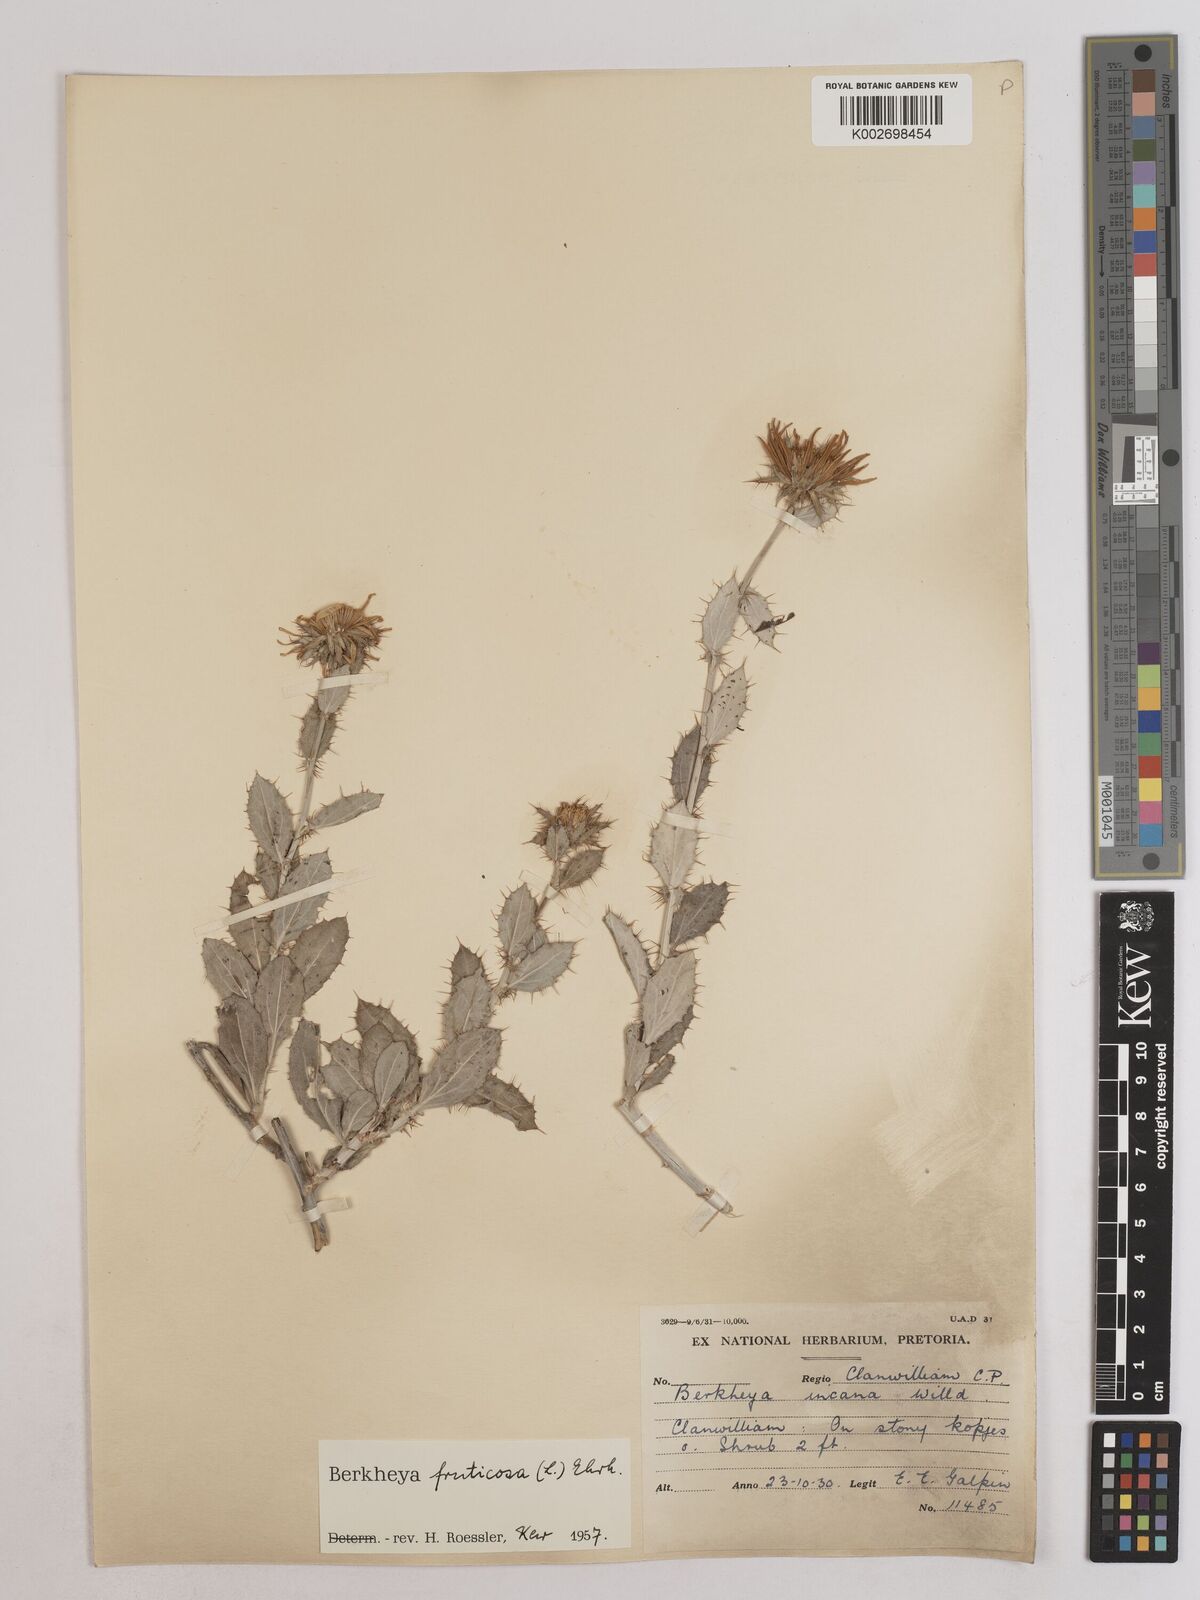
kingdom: Plantae
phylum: Tracheophyta
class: Magnoliopsida
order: Asterales
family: Asteraceae
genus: Berkheya
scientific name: Berkheya fruticosa
